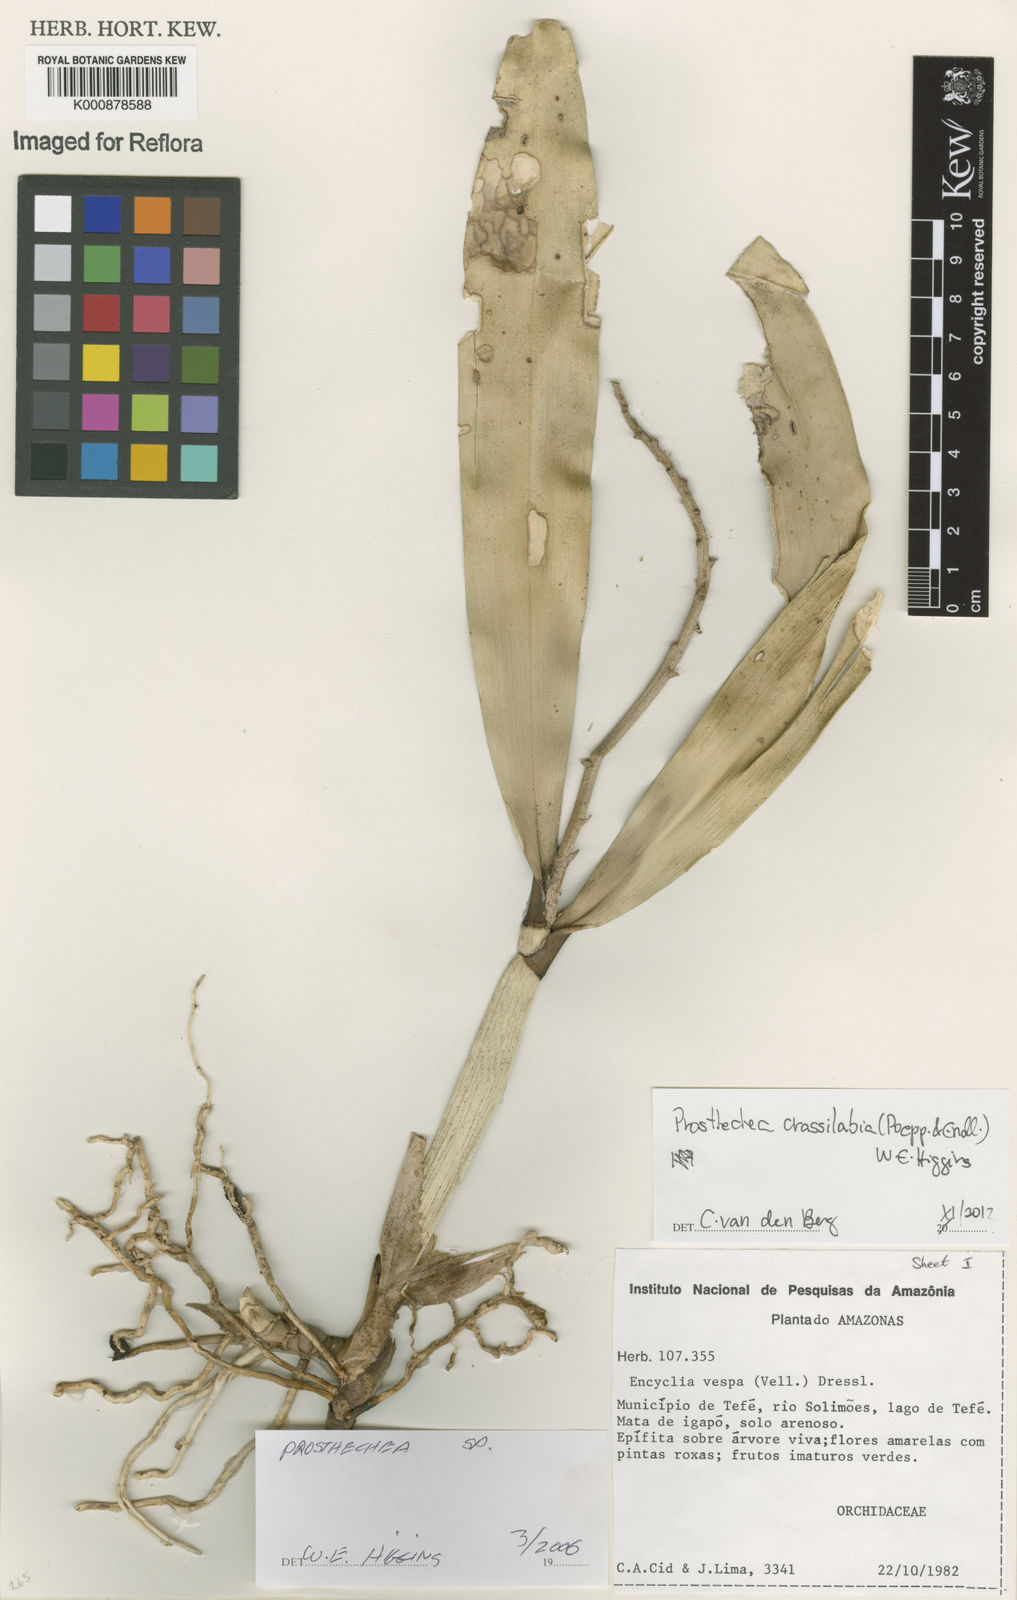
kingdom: Plantae
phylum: Tracheophyta
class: Liliopsida
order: Asparagales
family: Orchidaceae
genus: Prosthechea
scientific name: Prosthechea
